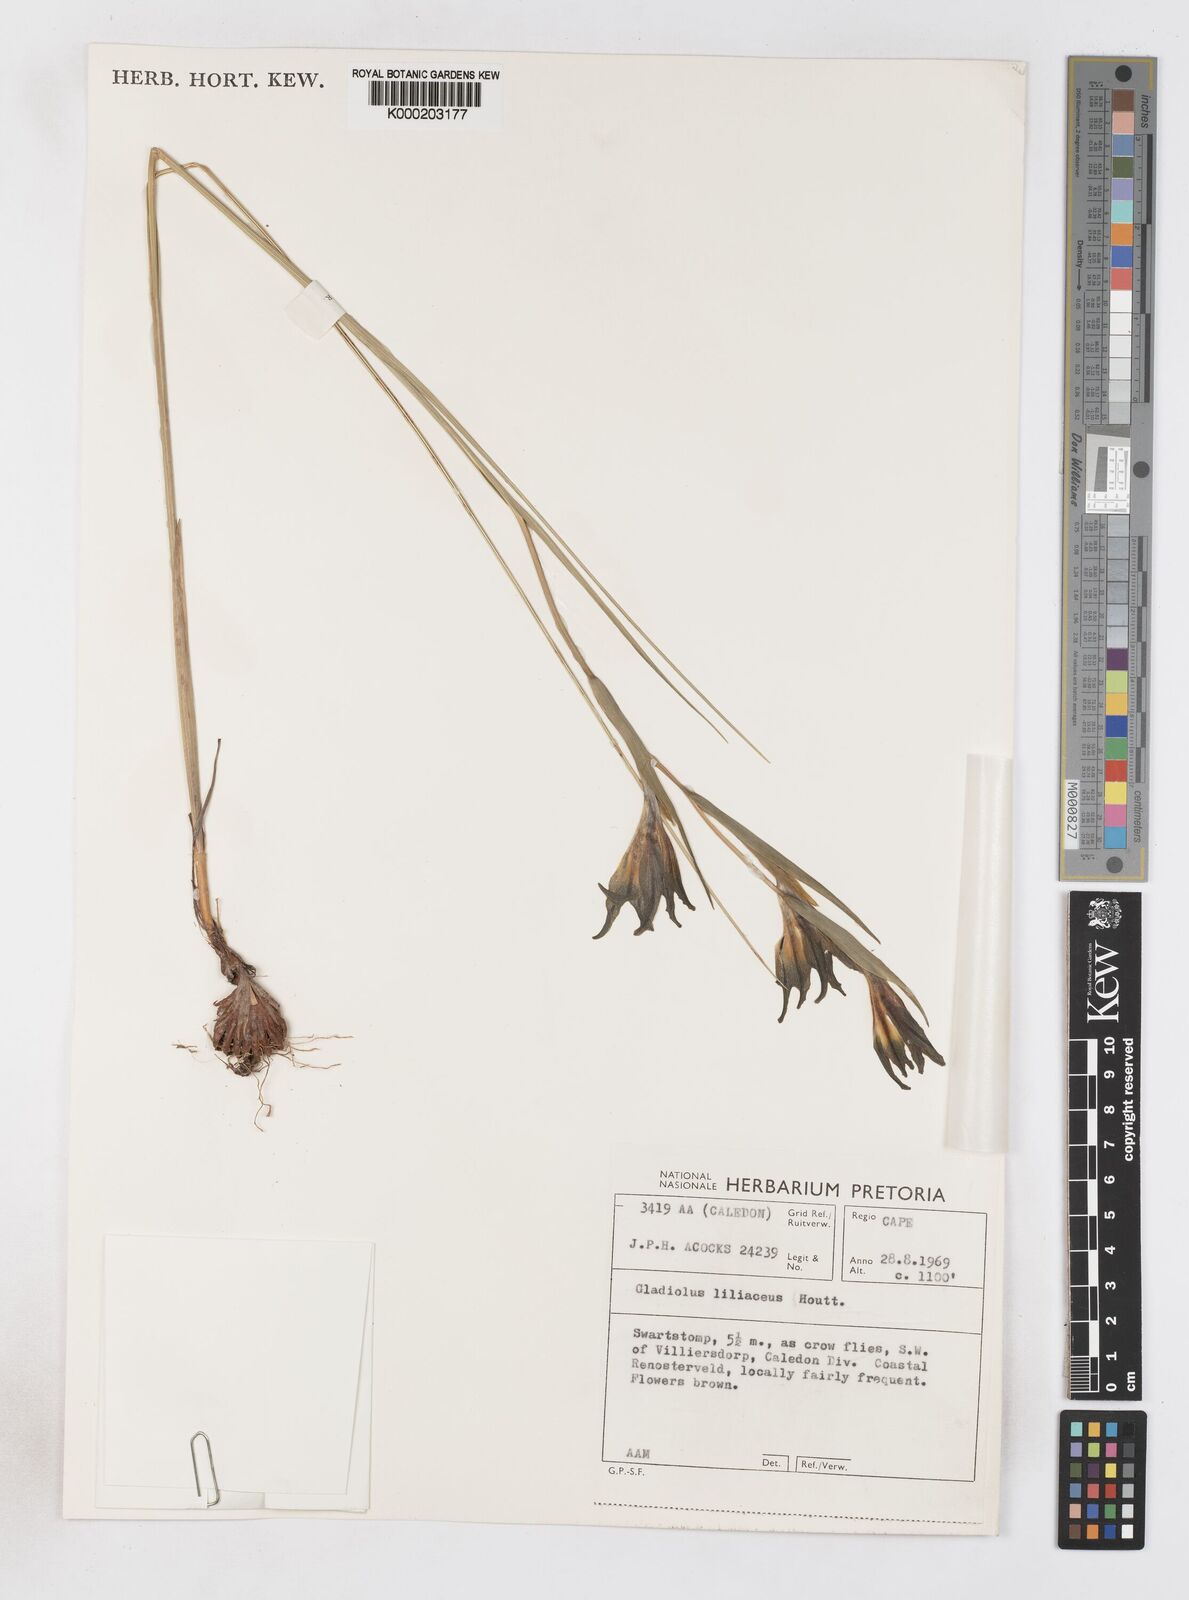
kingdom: Plantae
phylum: Tracheophyta
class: Liliopsida
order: Asparagales
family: Iridaceae
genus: Gladiolus
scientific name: Gladiolus liliaceus
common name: Large brown afrikaner
